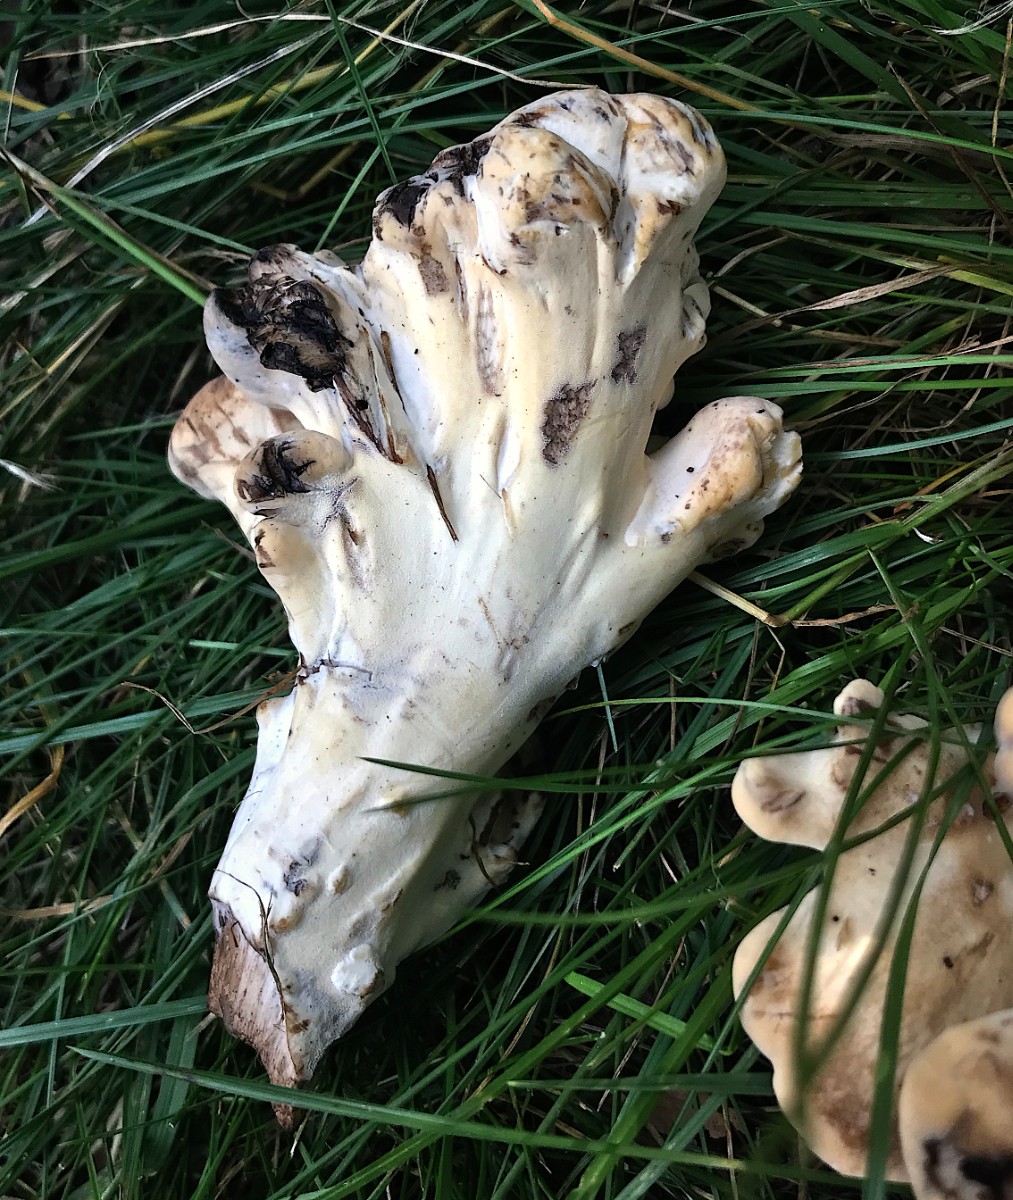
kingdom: Fungi
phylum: Basidiomycota
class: Agaricomycetes
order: Polyporales
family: Meripilaceae
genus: Meripilus
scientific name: Meripilus giganteus
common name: kæmpeporesvamp
